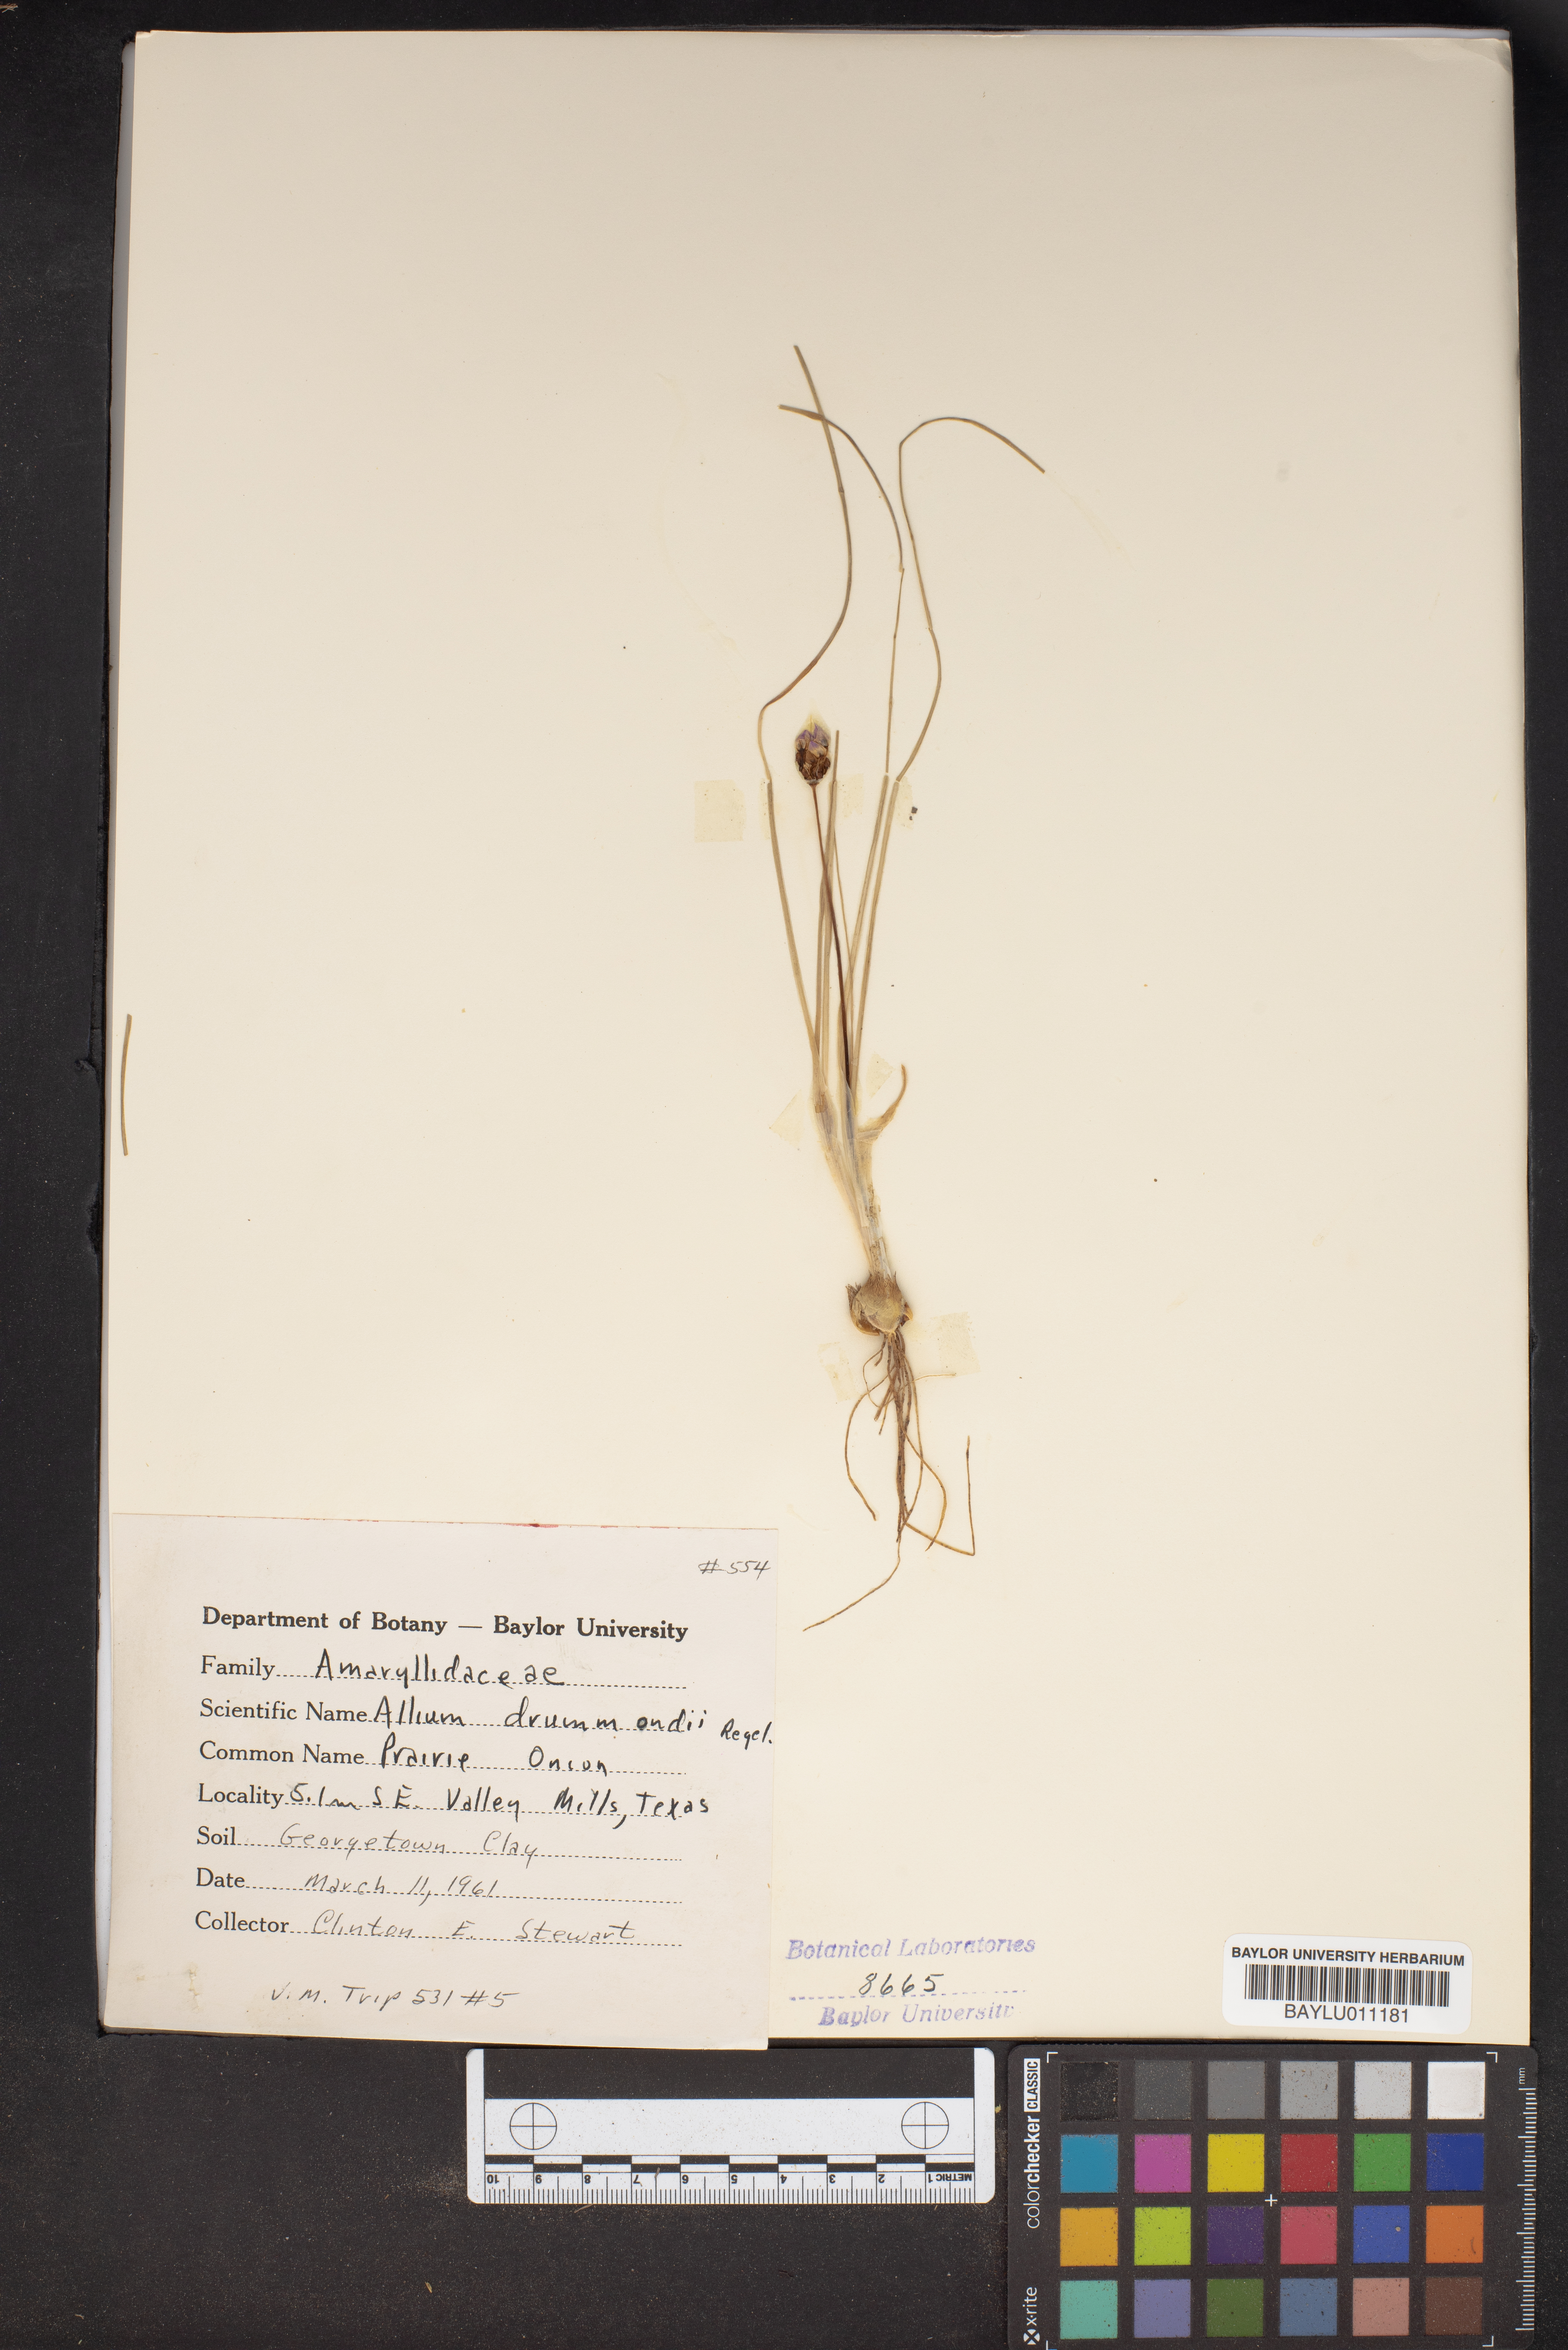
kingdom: Plantae
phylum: Tracheophyta
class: Liliopsida
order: Asparagales
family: Amaryllidaceae
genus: Allium
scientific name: Allium drummondii
